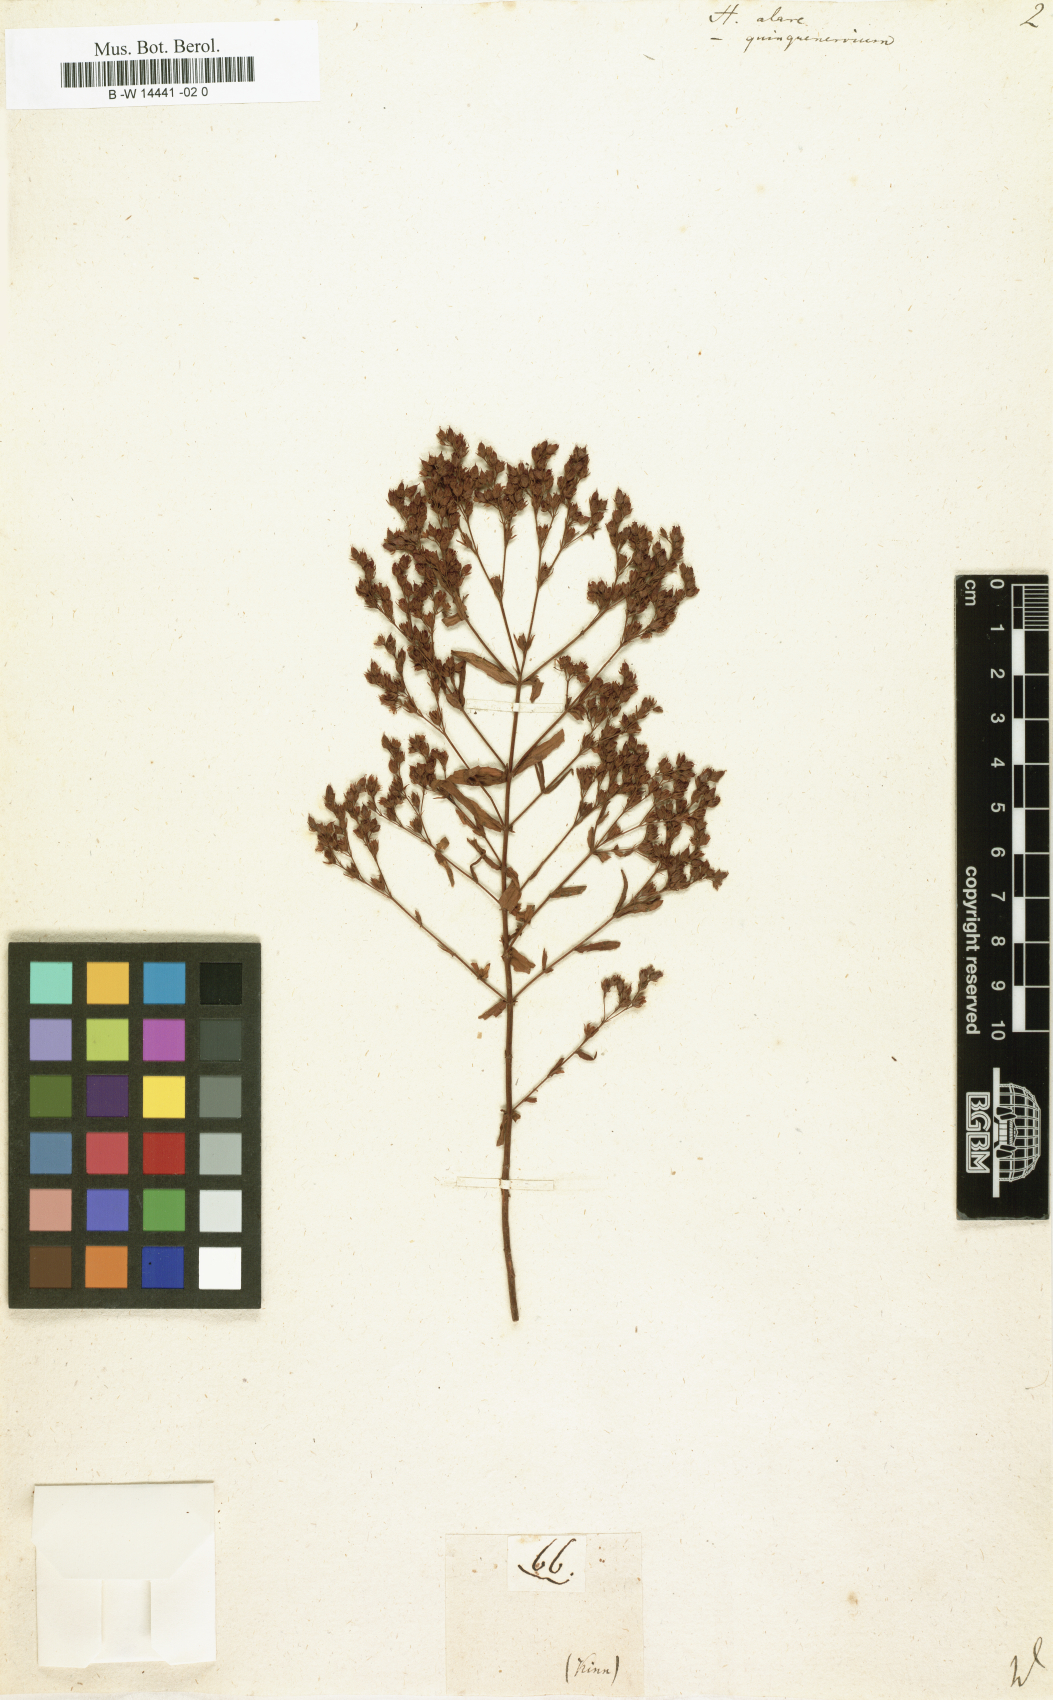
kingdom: Plantae
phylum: Tracheophyta
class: Magnoliopsida
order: Malpighiales
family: Hypericaceae
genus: Hypericum
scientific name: Hypericum tetrapterum
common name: Square-stalked st. john's-wort
